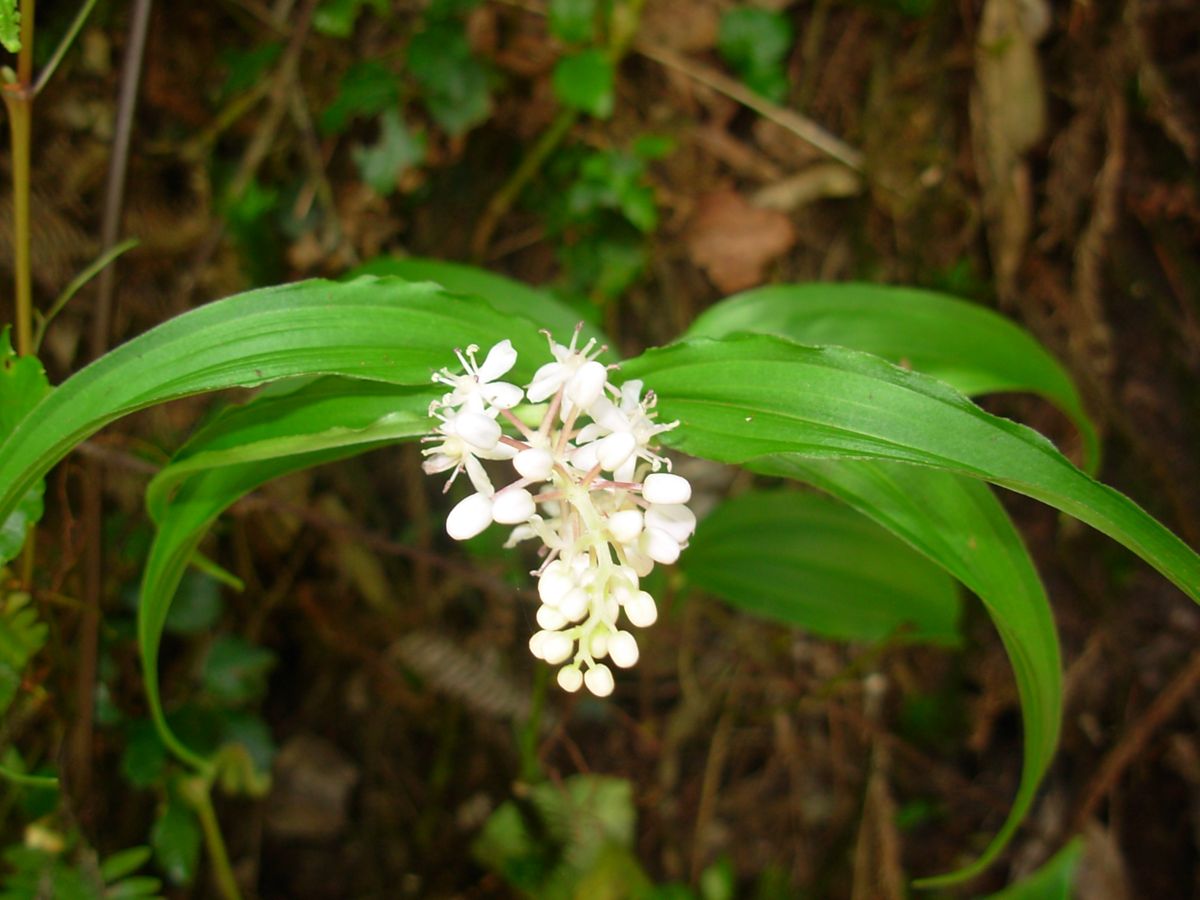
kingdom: Plantae
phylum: Tracheophyta
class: Liliopsida
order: Asparagales
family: Asparagaceae
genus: Maianthemum
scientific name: Maianthemum flexuosum
